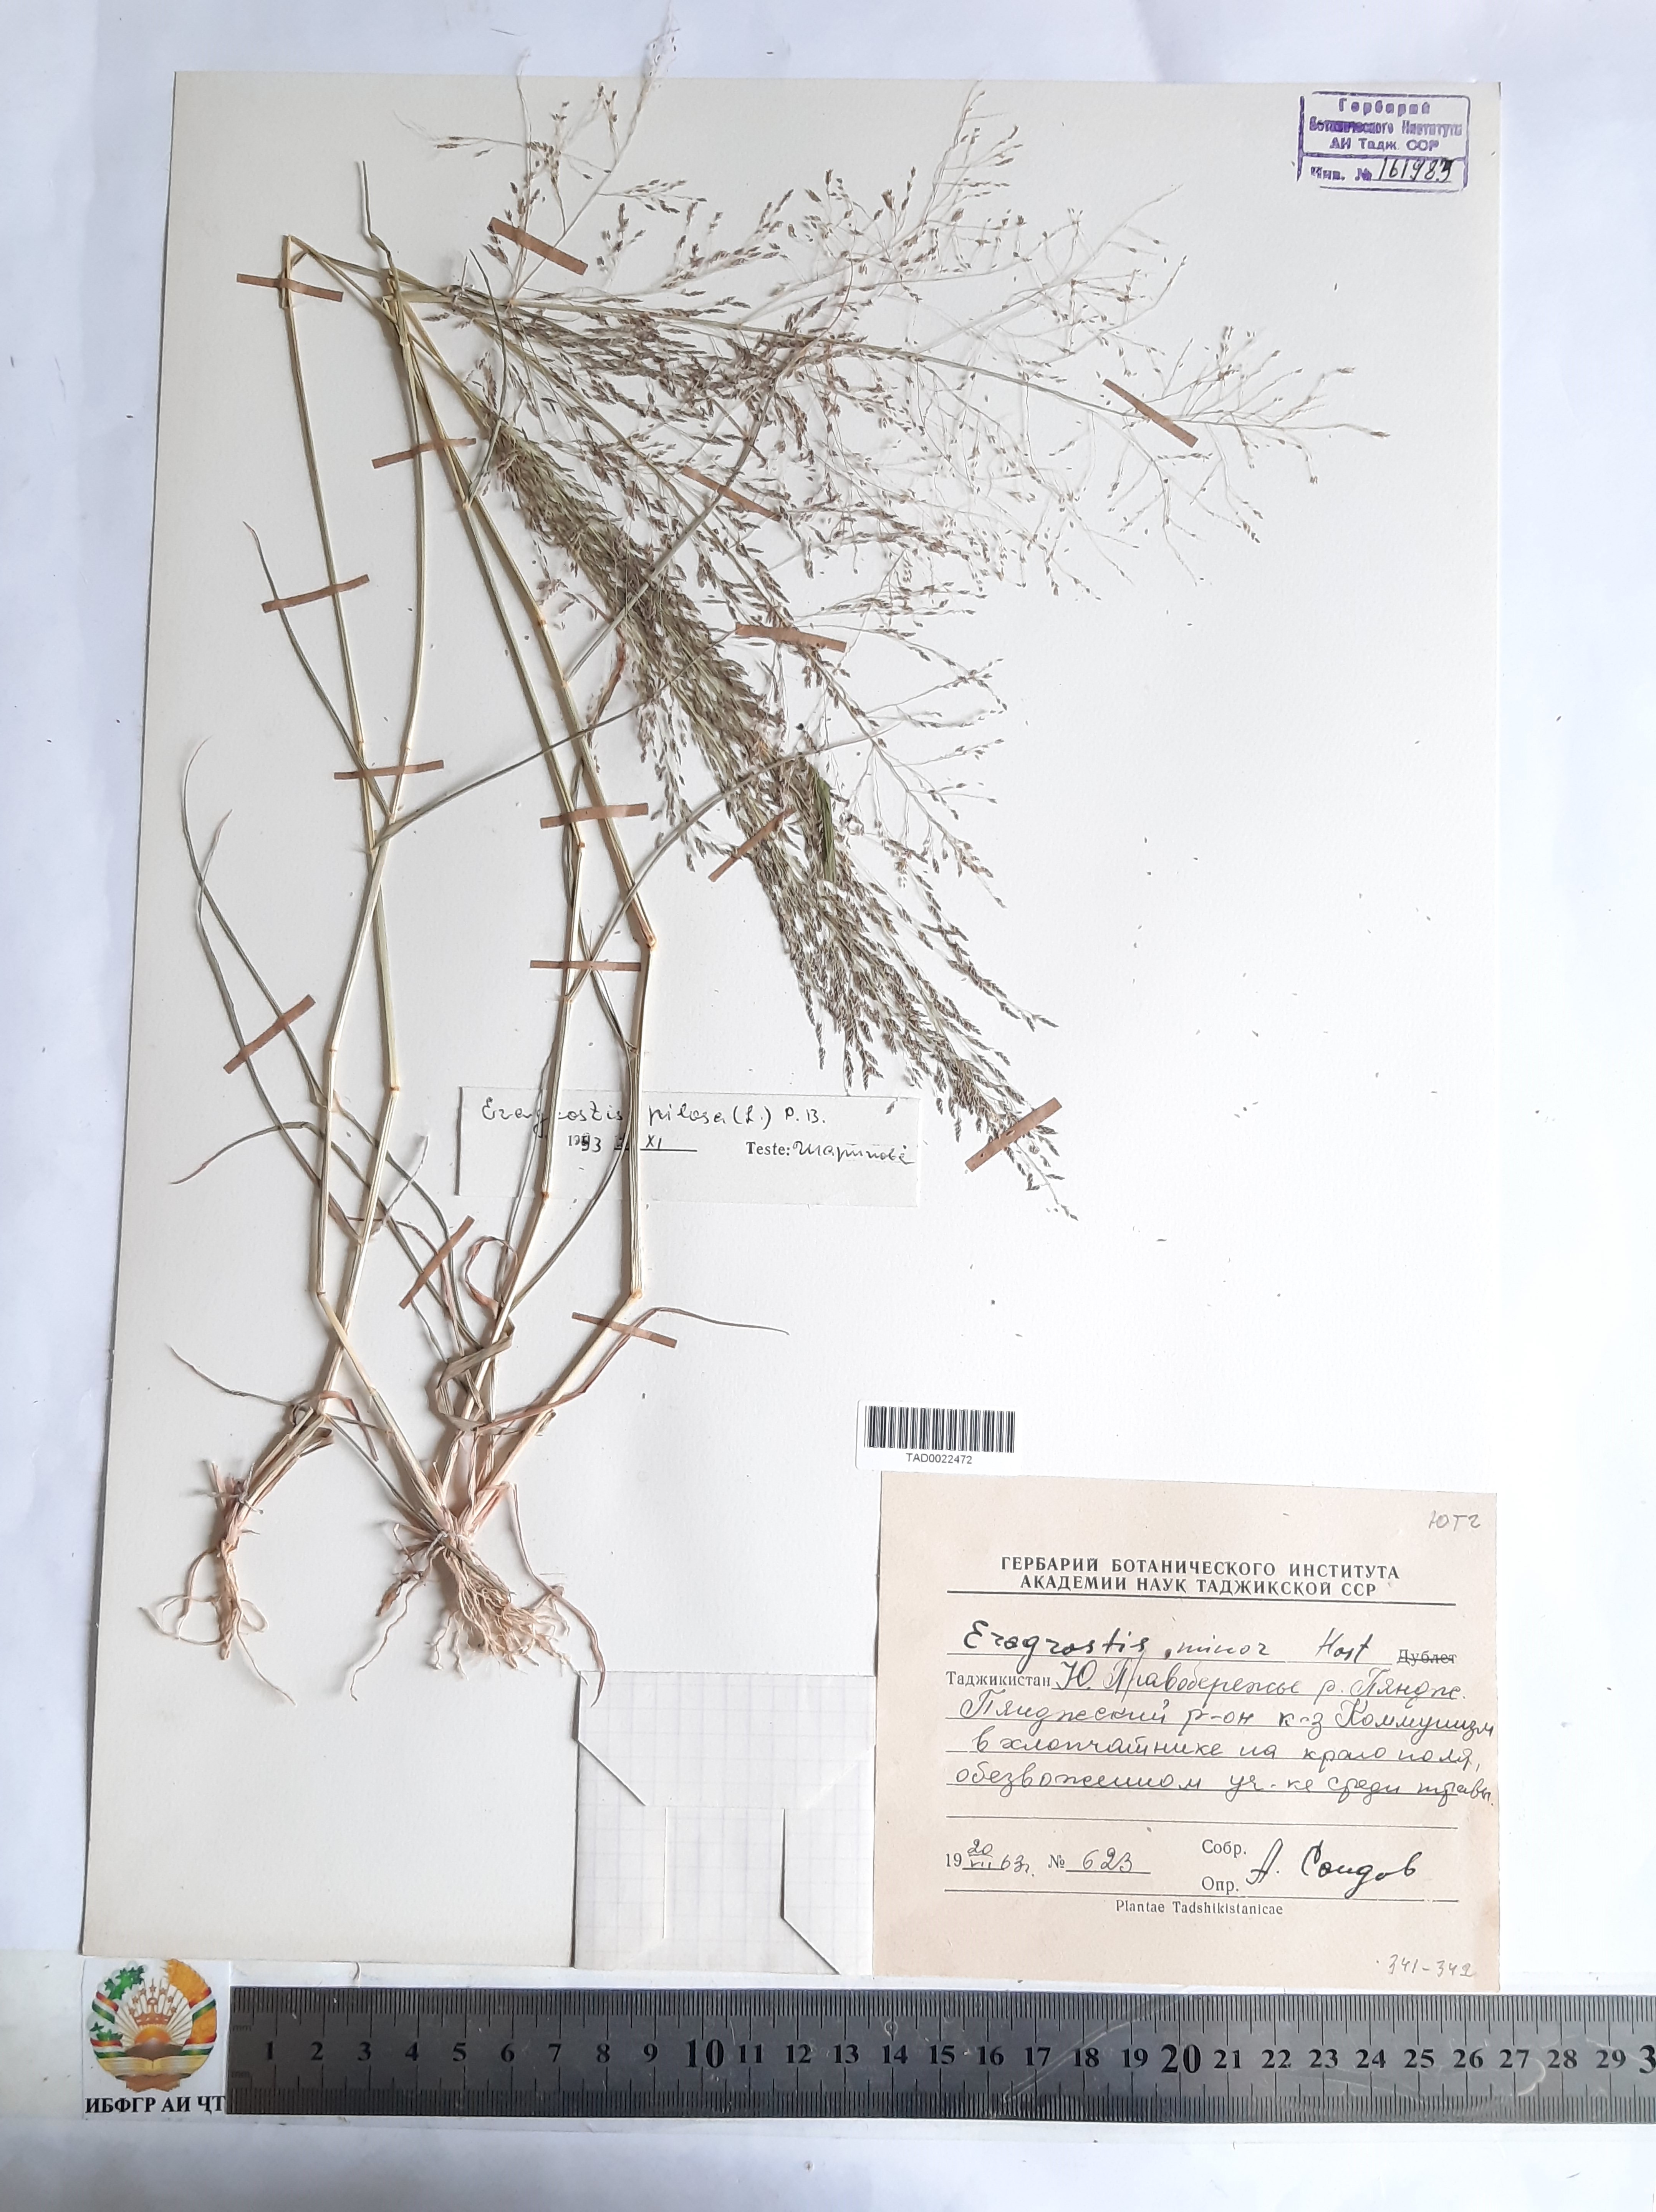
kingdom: Plantae
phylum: Tracheophyta
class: Liliopsida
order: Poales
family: Poaceae
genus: Eragrostis
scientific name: Eragrostis pilosa
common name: Indian lovegrass
